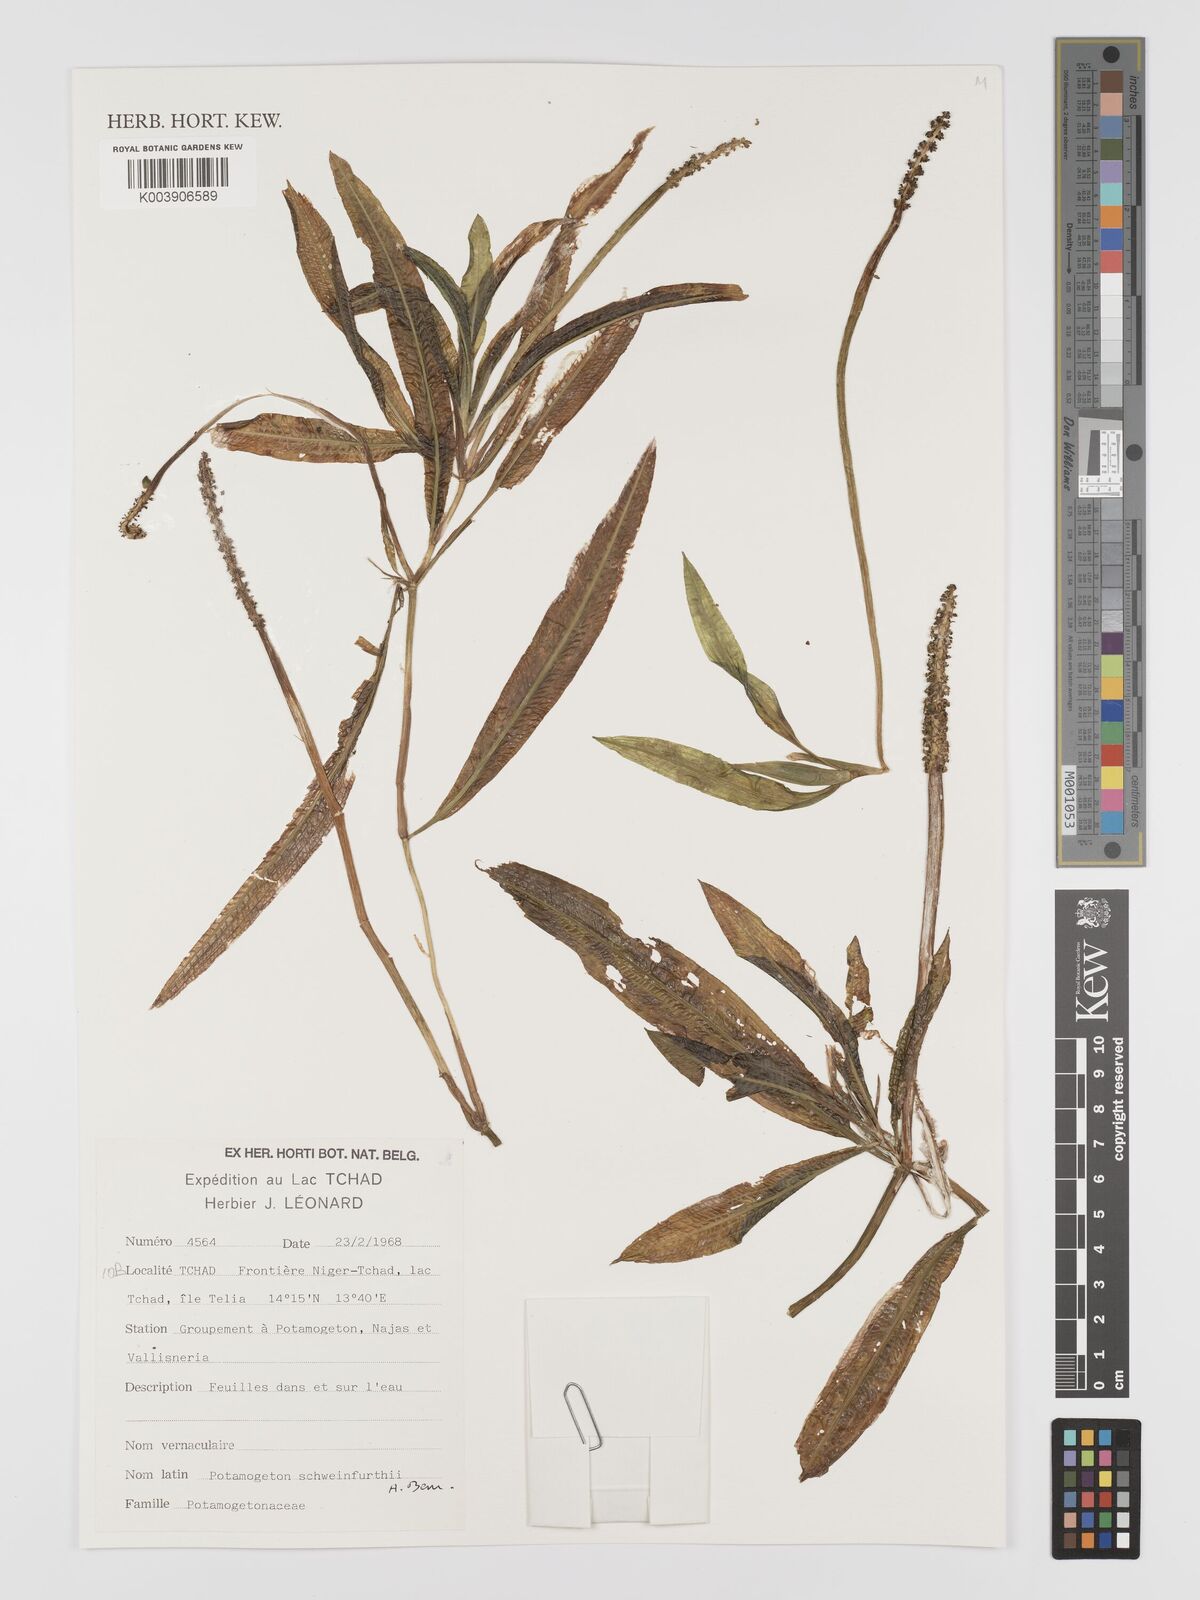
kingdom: Plantae
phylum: Tracheophyta
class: Liliopsida
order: Alismatales
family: Potamogetonaceae
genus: Potamogeton
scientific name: Potamogeton schweinfurthii
